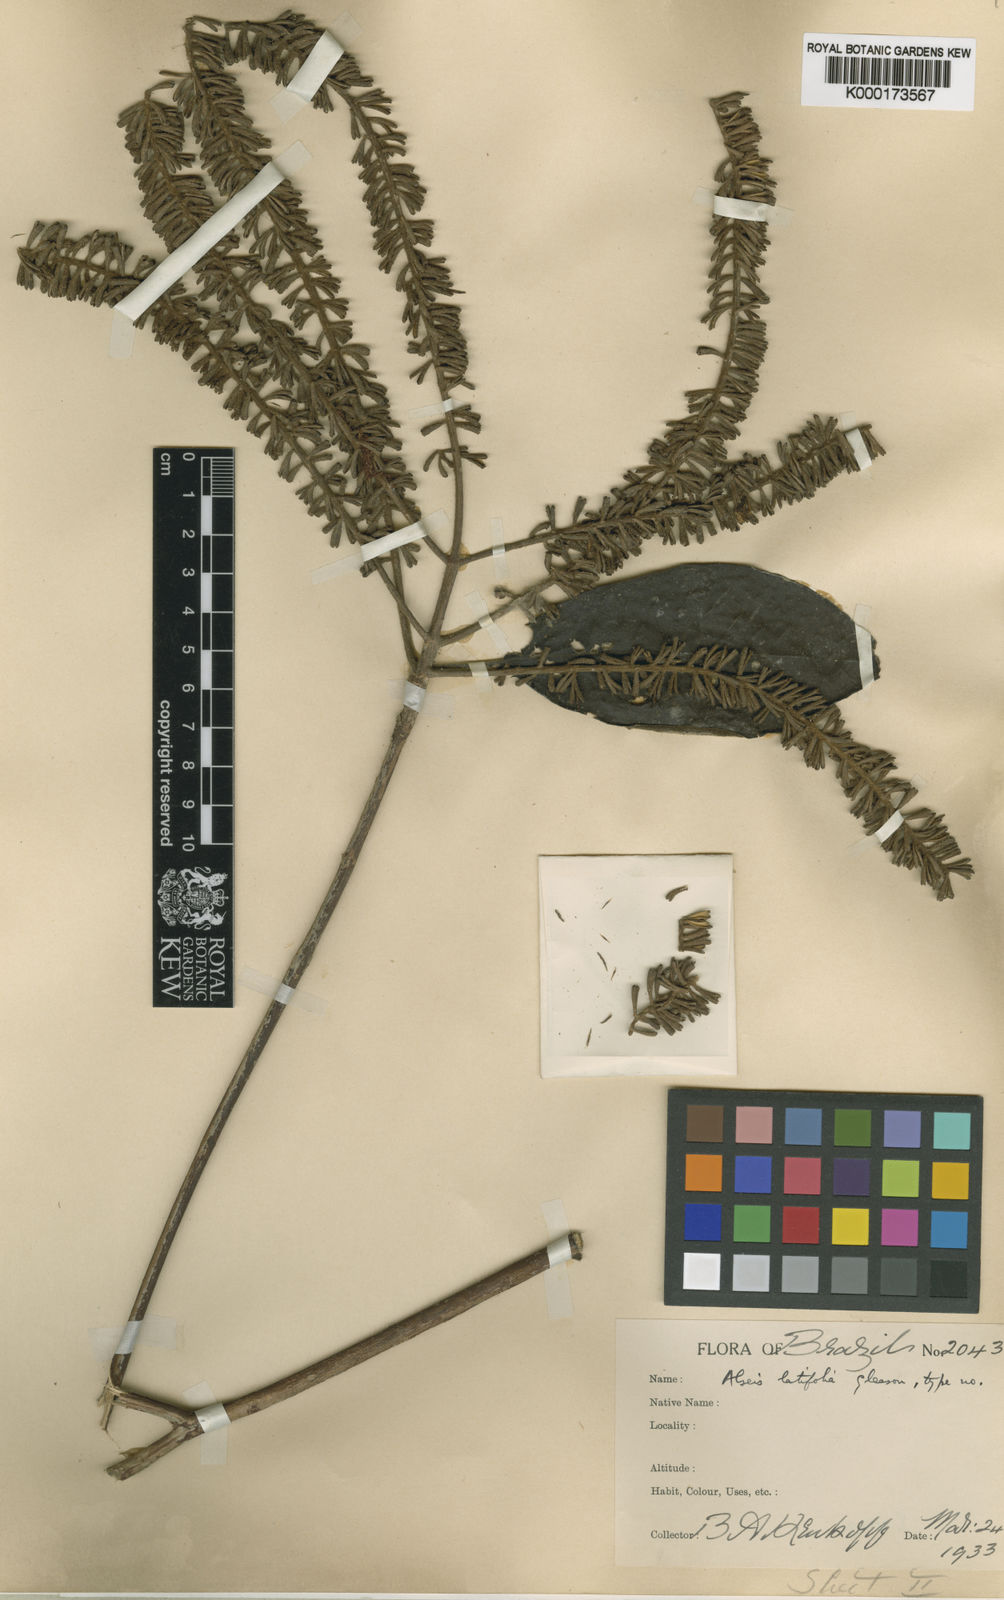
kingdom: Plantae
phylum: Tracheophyta
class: Magnoliopsida
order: Gentianales
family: Rubiaceae
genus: Alseis
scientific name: Alseis latifolia
